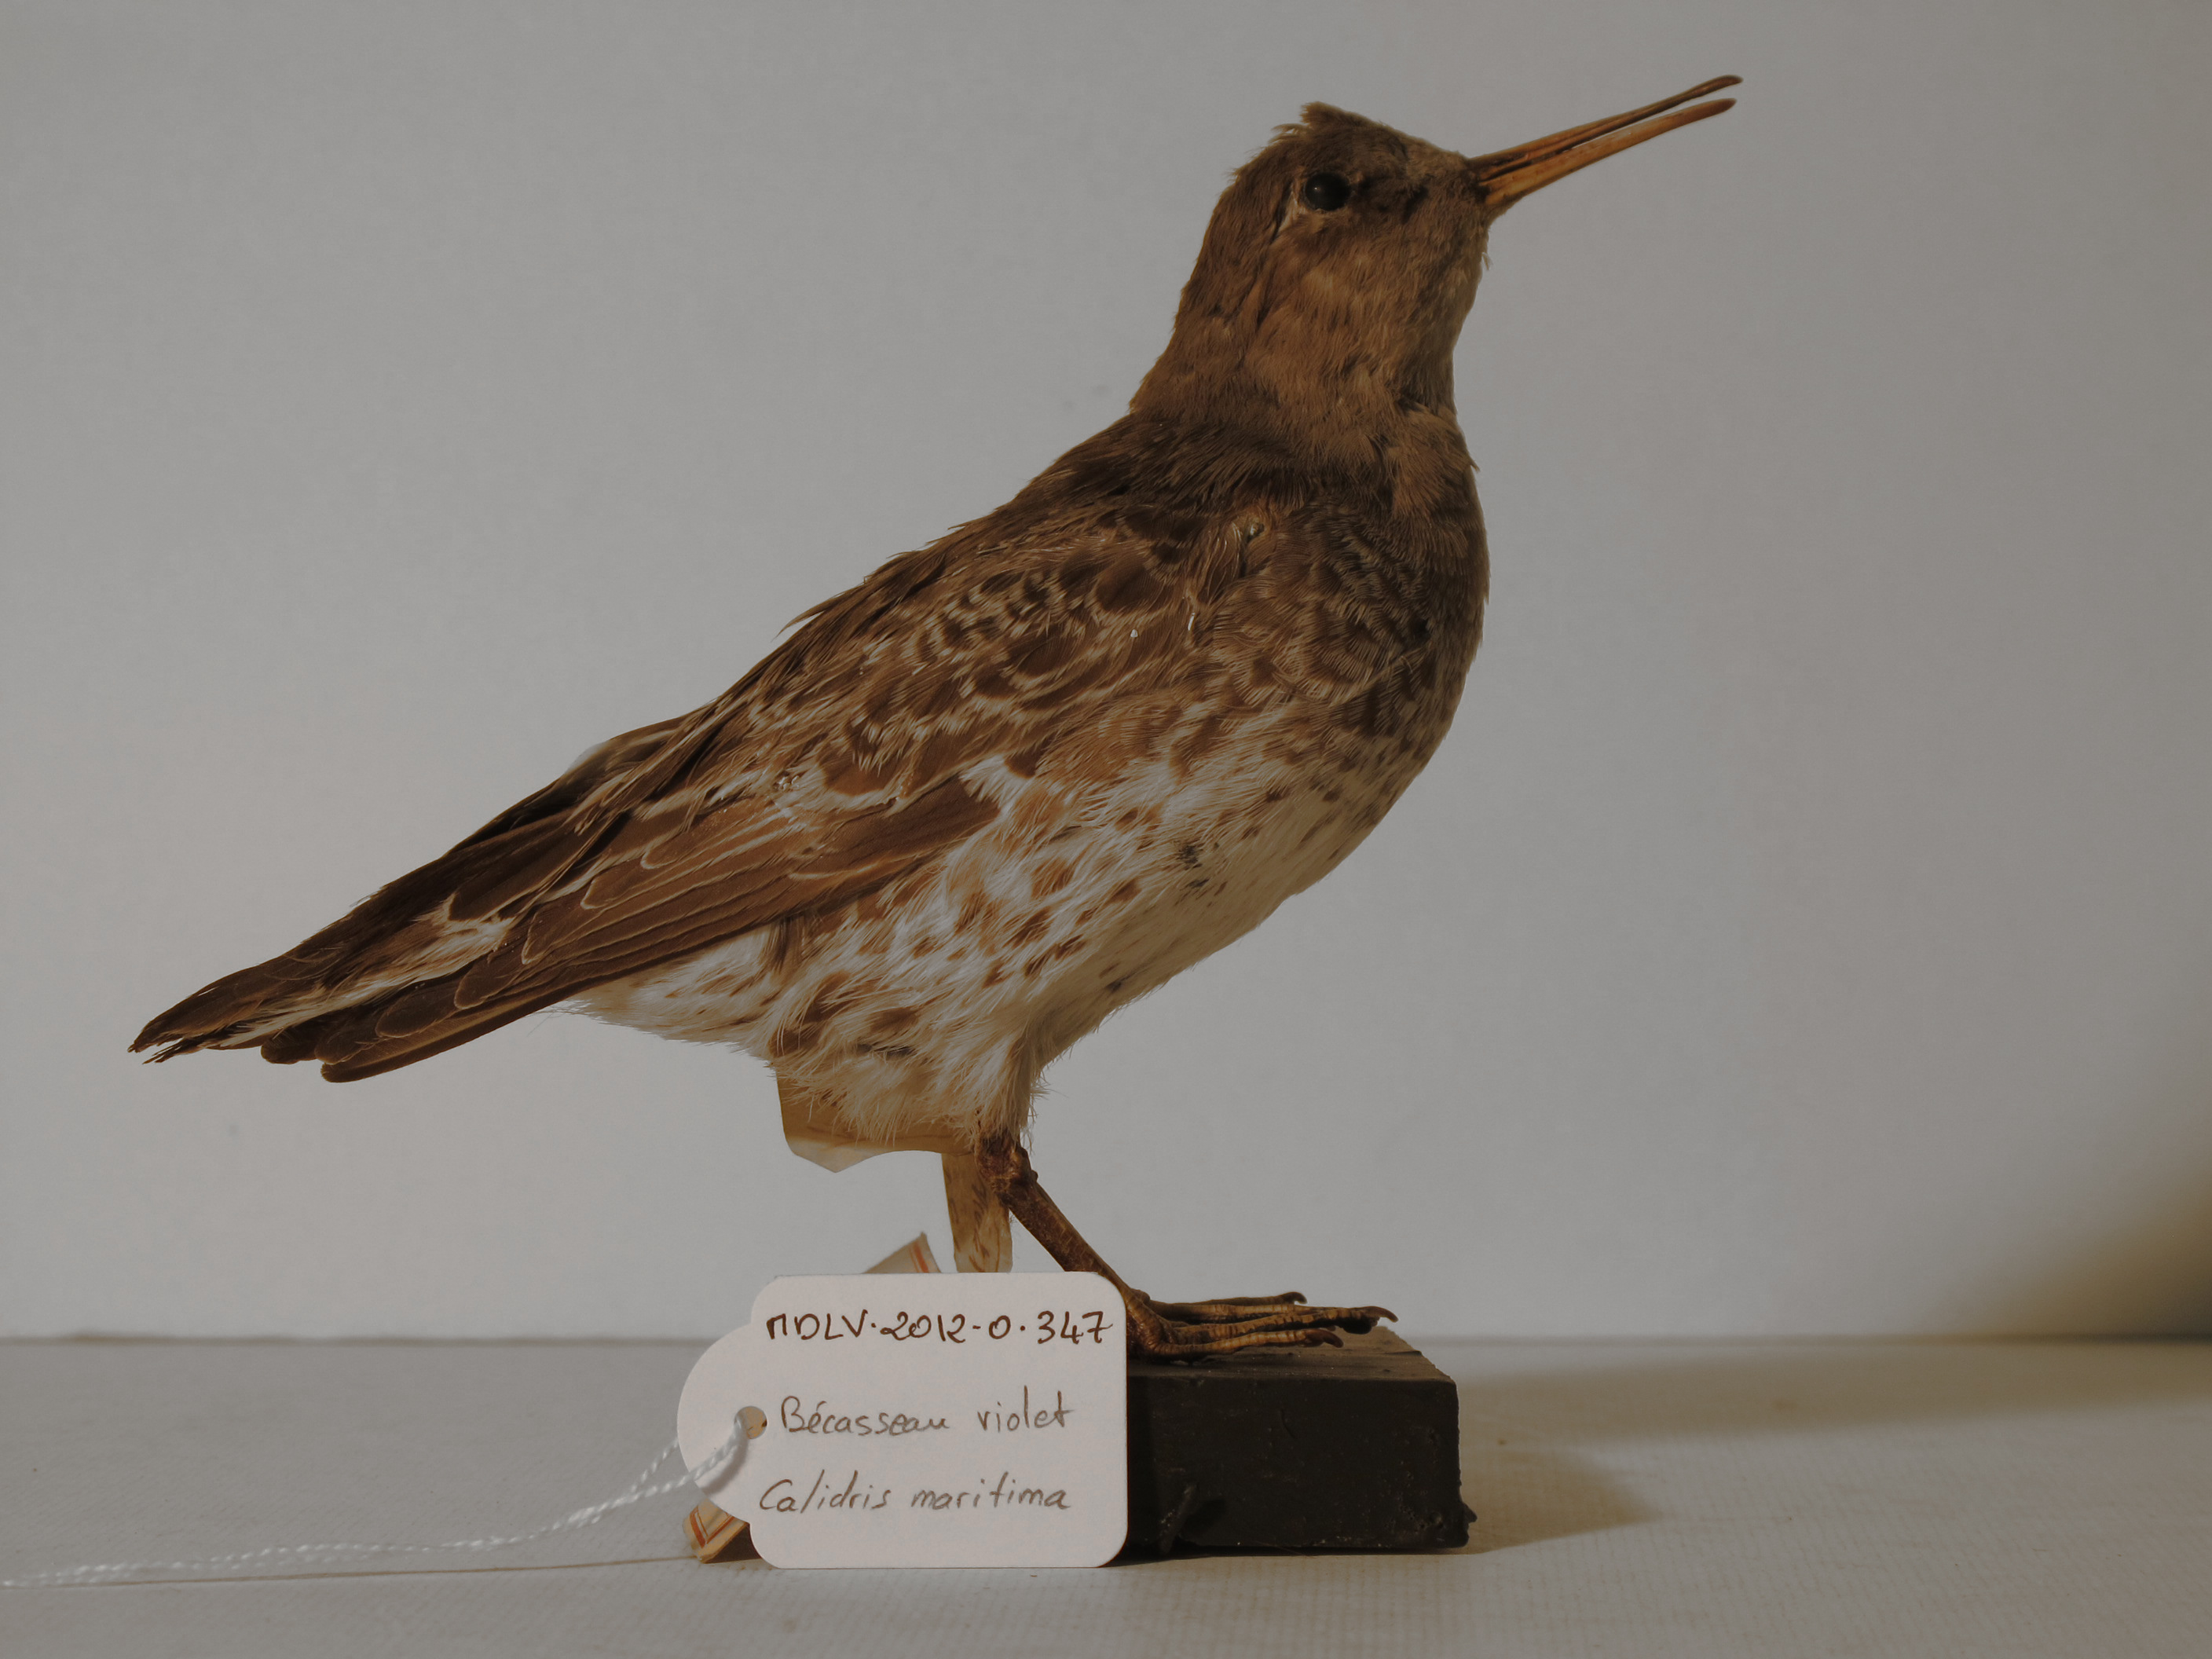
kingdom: Animalia
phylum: Chordata
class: Aves
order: Charadriiformes
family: Scolopacidae
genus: Calidris
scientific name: Calidris maritima
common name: Purple Sandpiper
